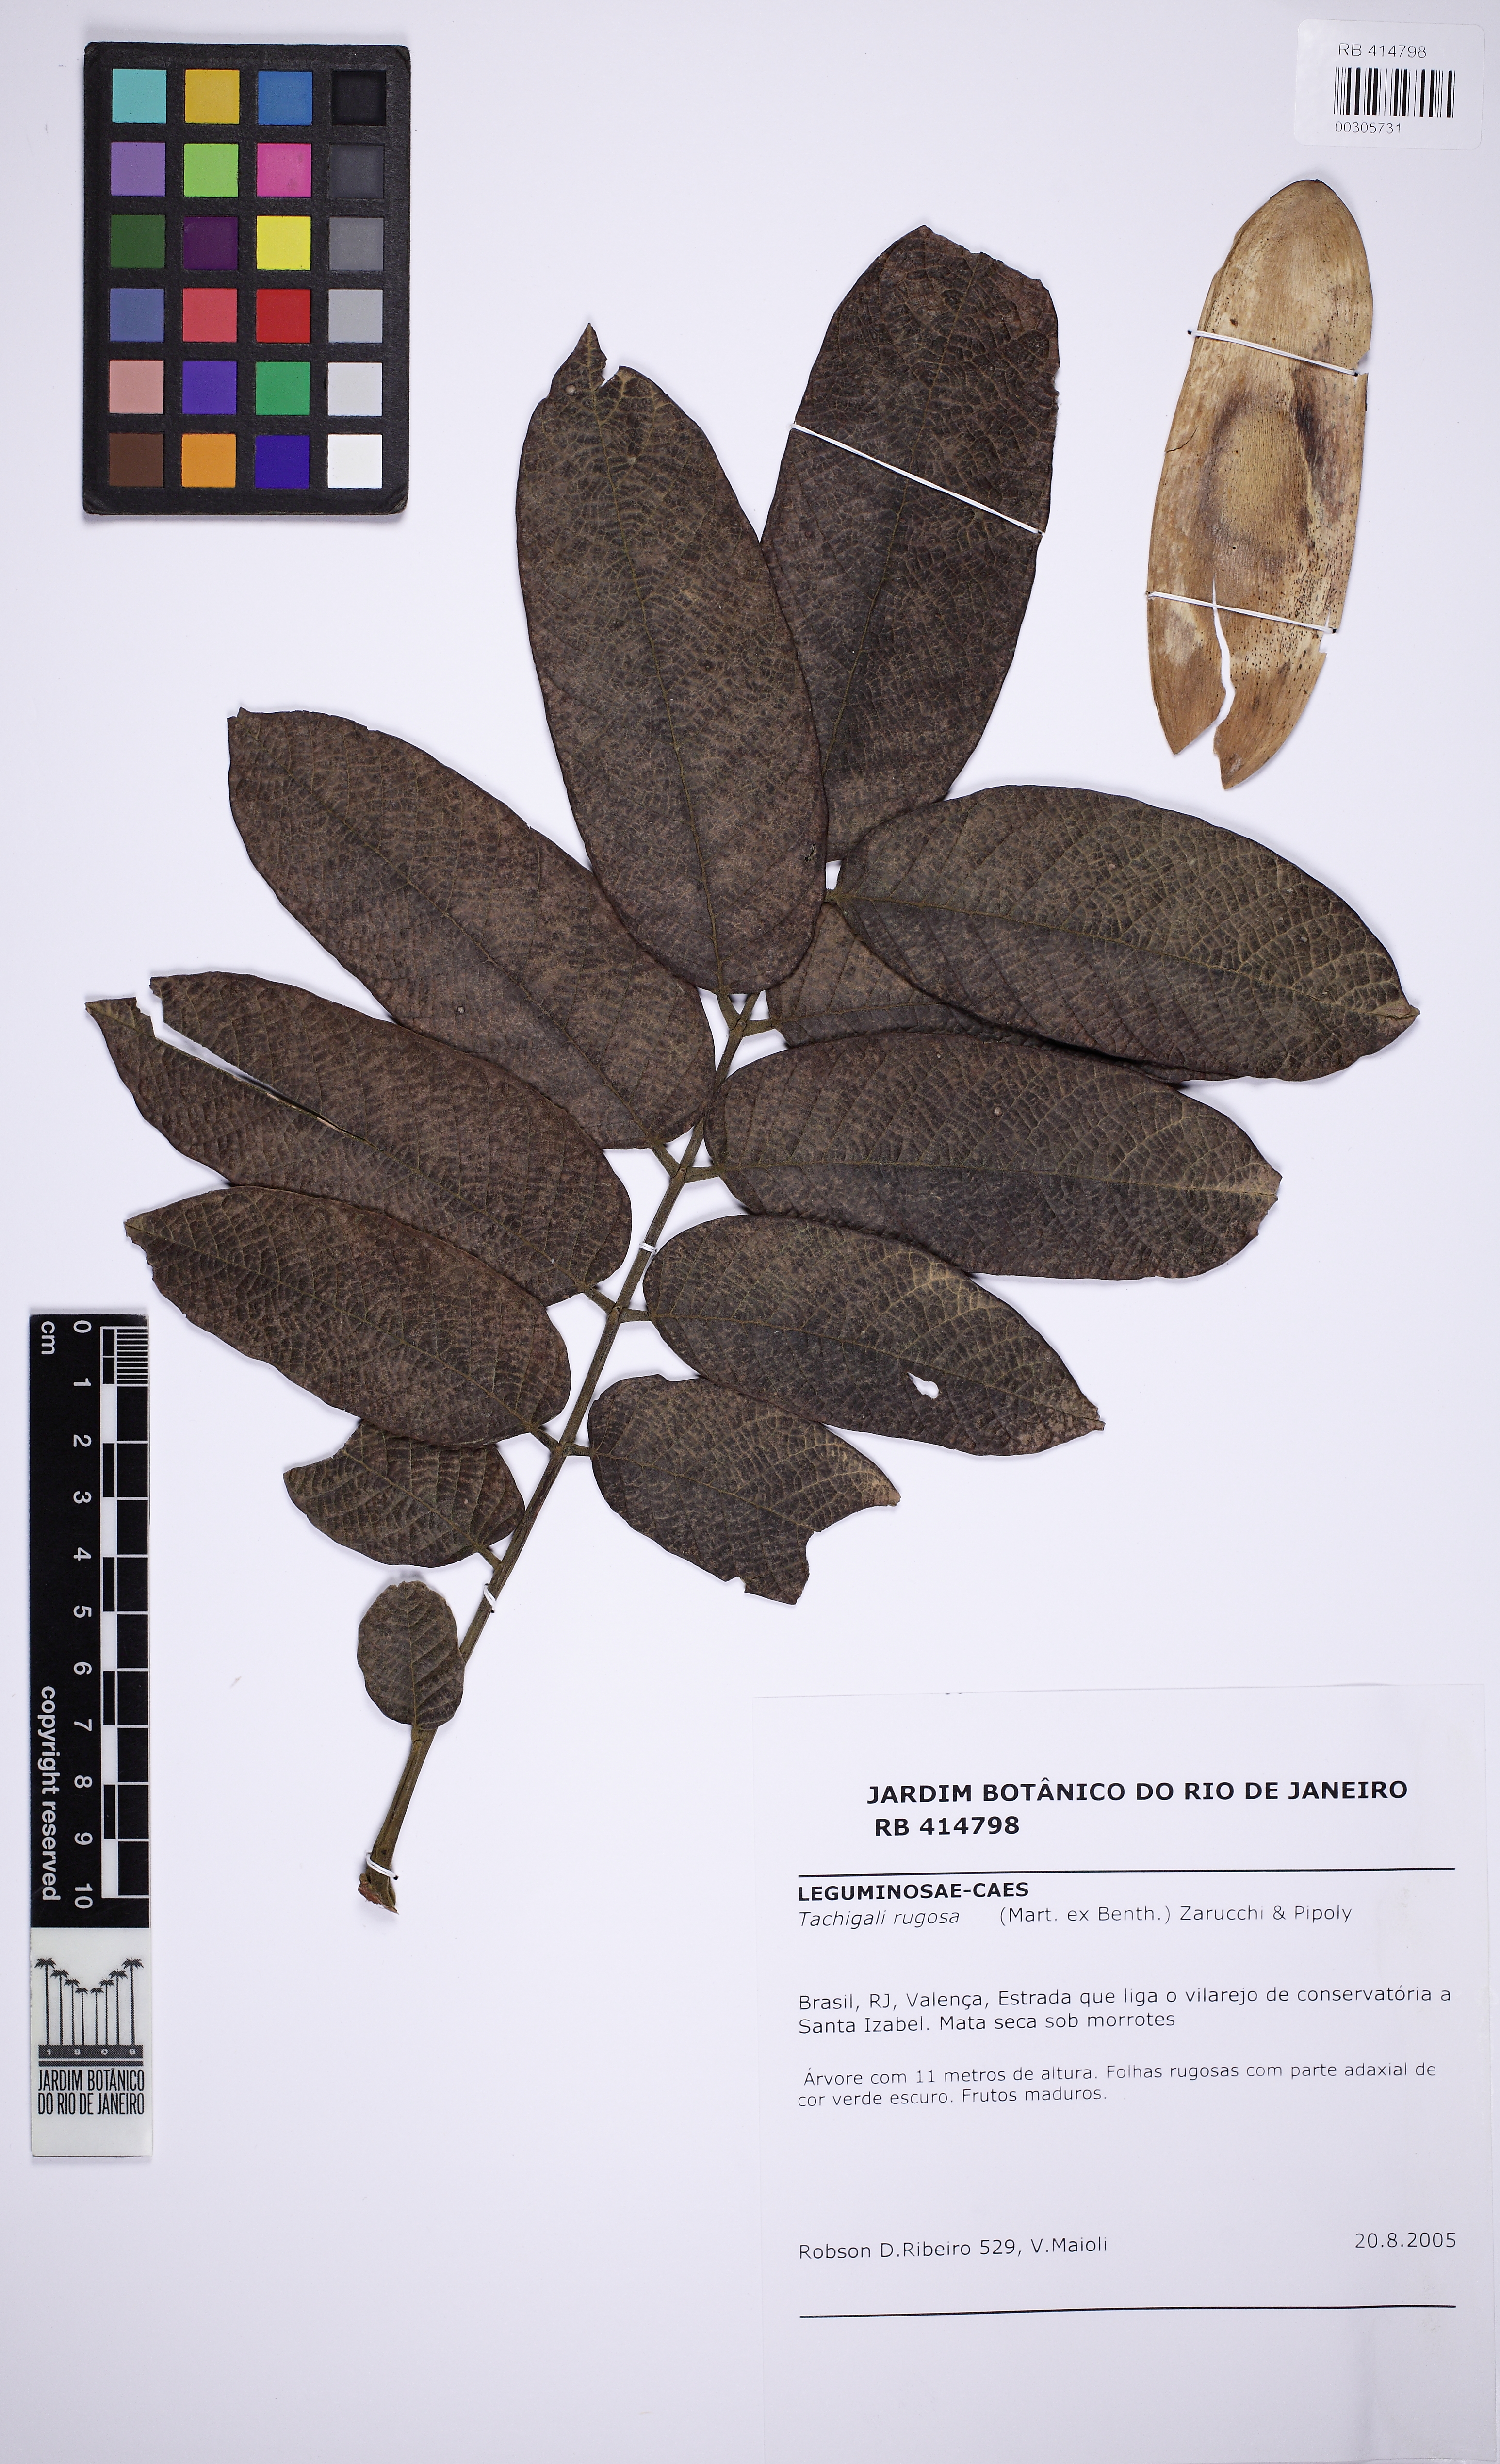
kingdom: Plantae
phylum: Tracheophyta
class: Magnoliopsida
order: Fabales
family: Fabaceae
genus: Tachigali
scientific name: Tachigali rugosa
